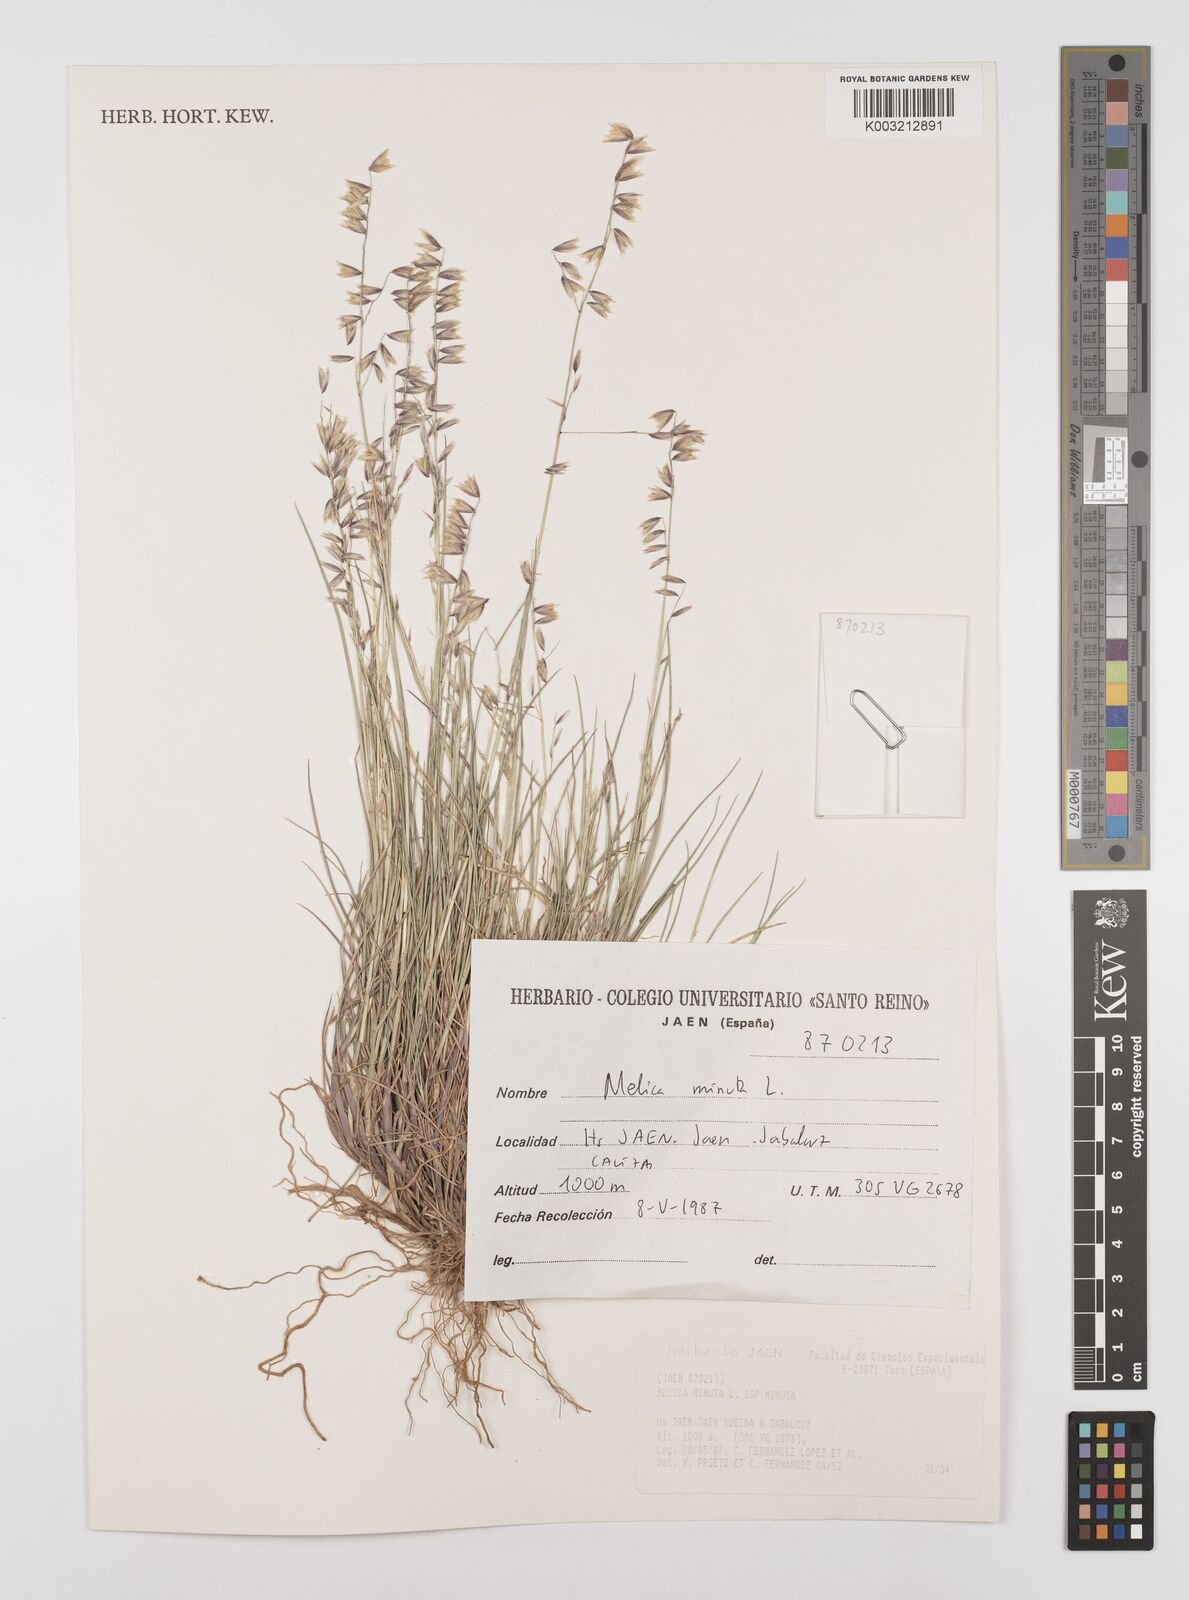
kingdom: Plantae
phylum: Tracheophyta
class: Liliopsida
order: Poales
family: Poaceae
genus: Melica
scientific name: Melica minuta
